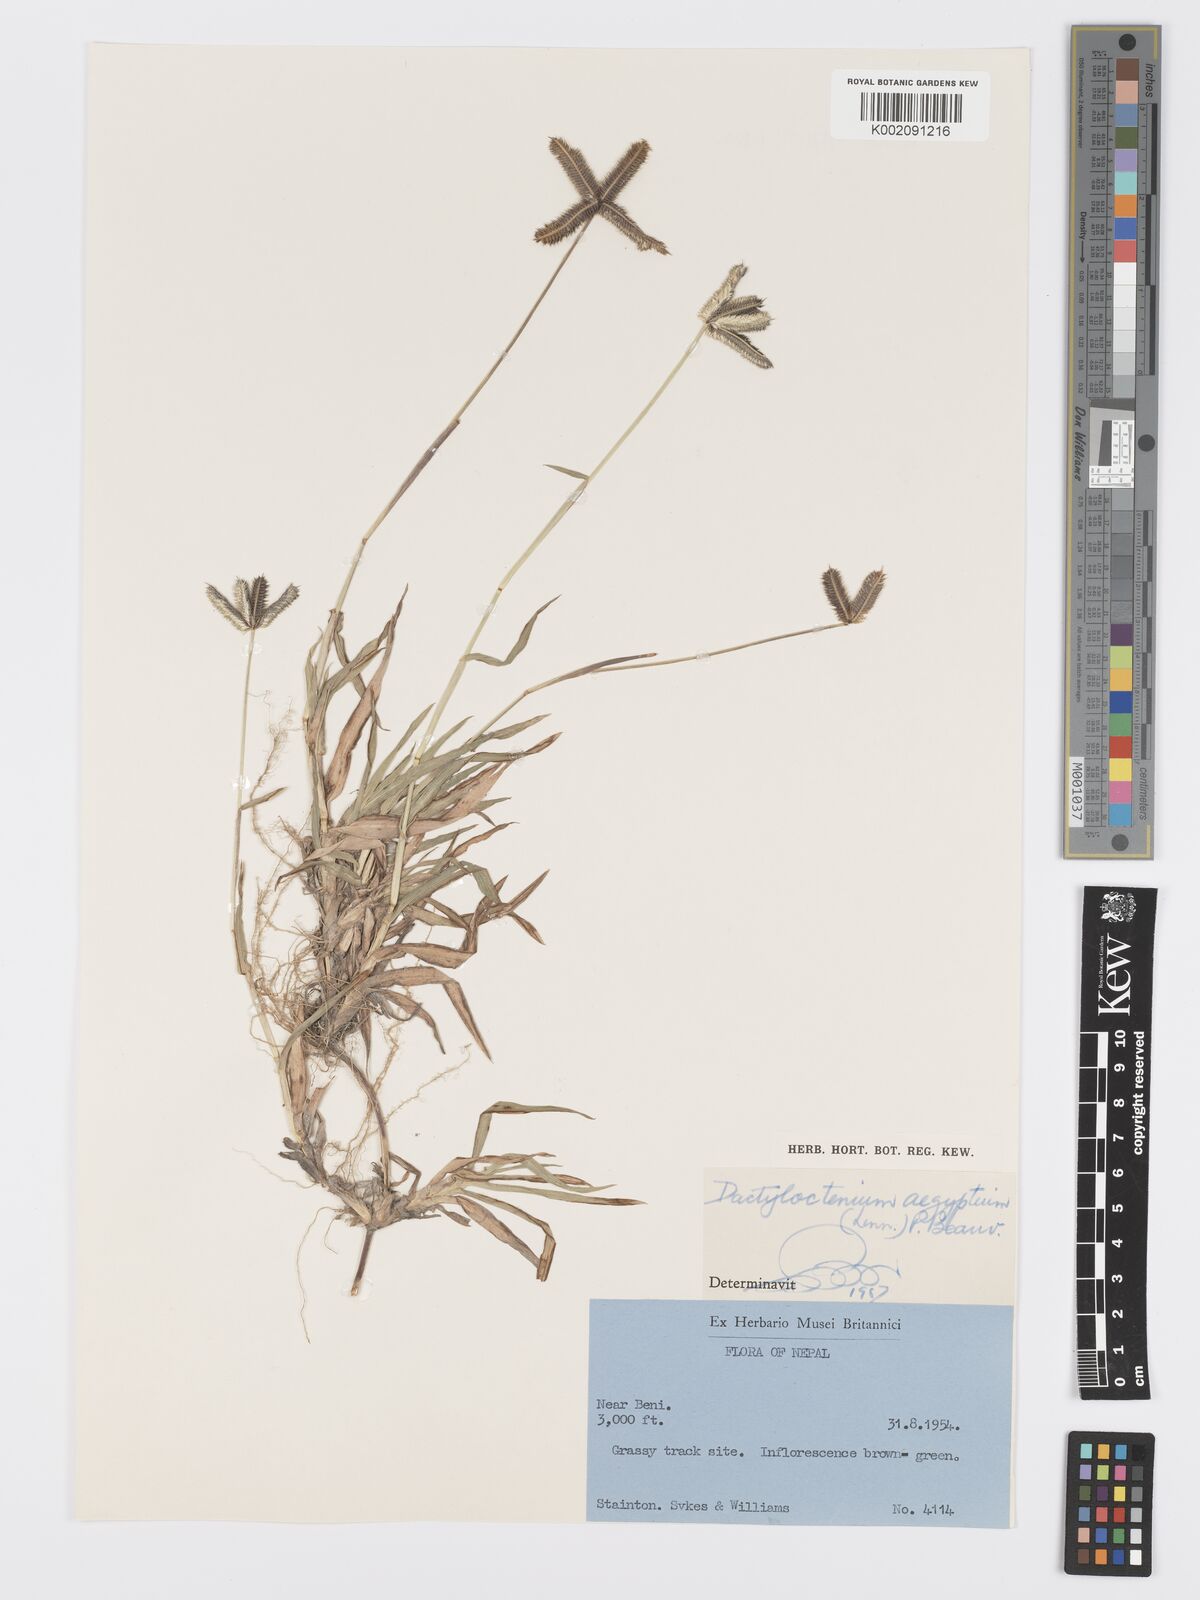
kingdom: Plantae
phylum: Tracheophyta
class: Liliopsida
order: Poales
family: Poaceae
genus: Dactyloctenium
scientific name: Dactyloctenium aegyptium
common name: Egyptian grass
